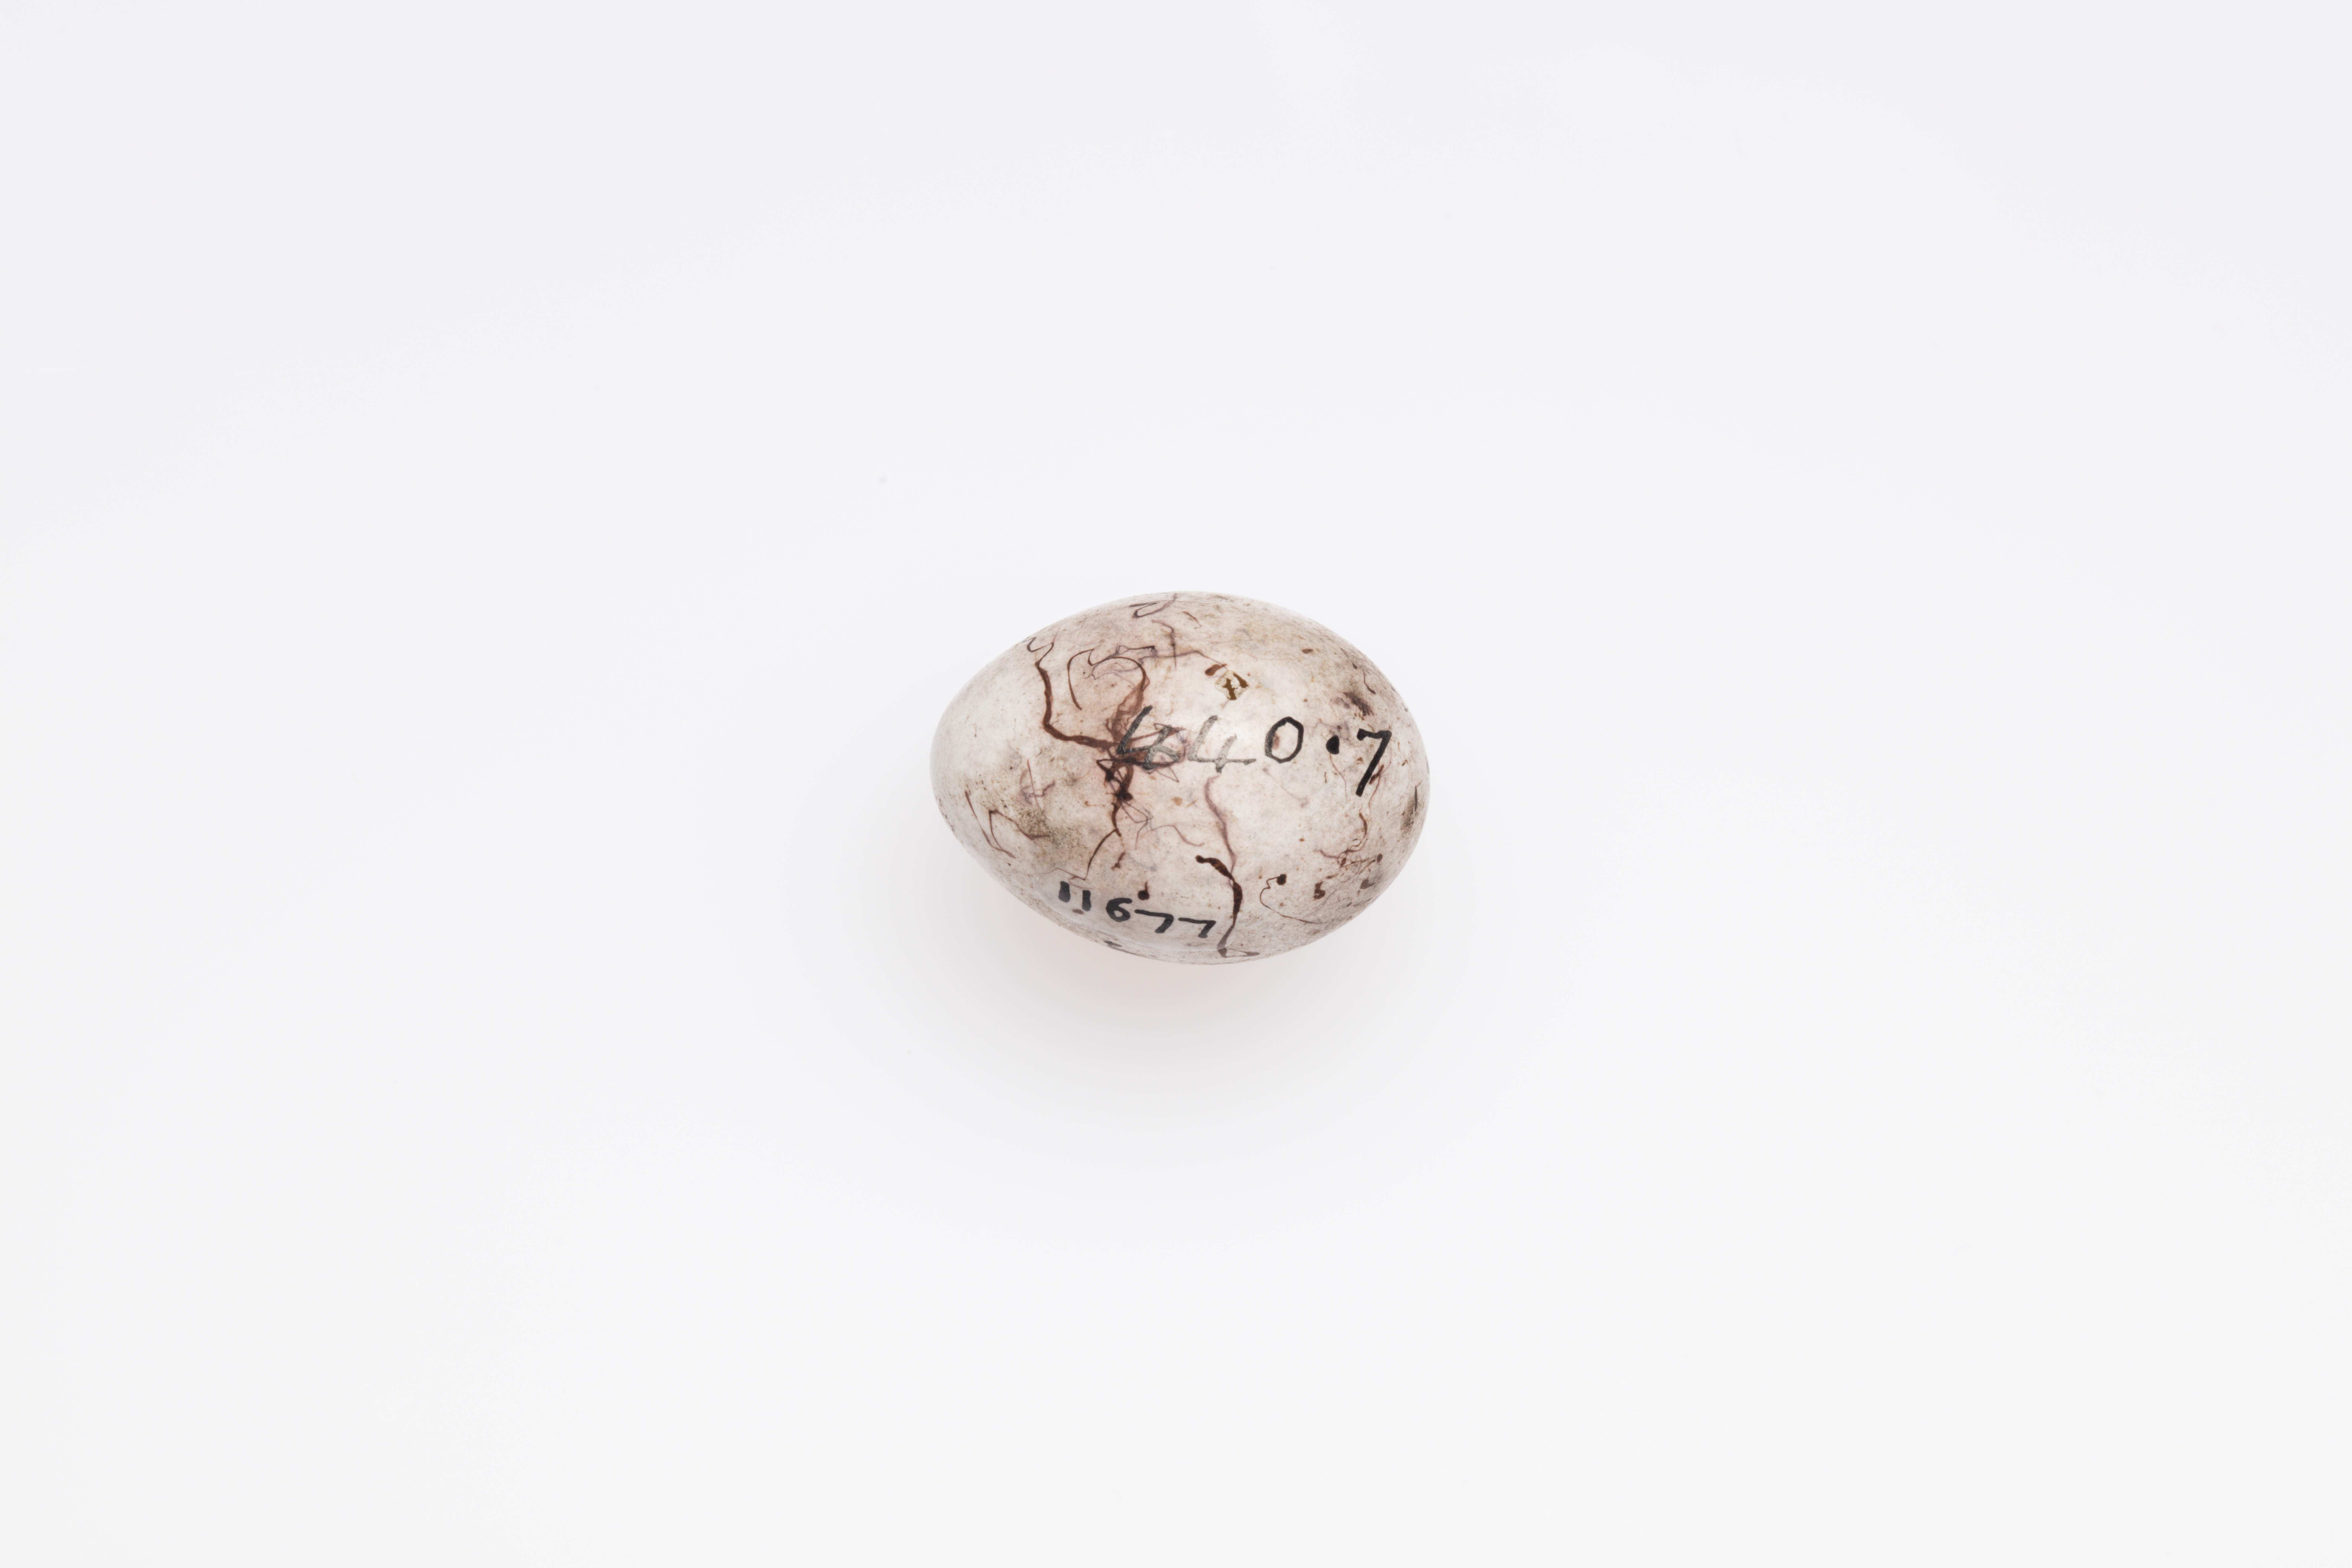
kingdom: Animalia
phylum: Chordata
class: Aves
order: Passeriformes
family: Emberizidae
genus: Emberiza
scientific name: Emberiza citrinella
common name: Yellowhammer
